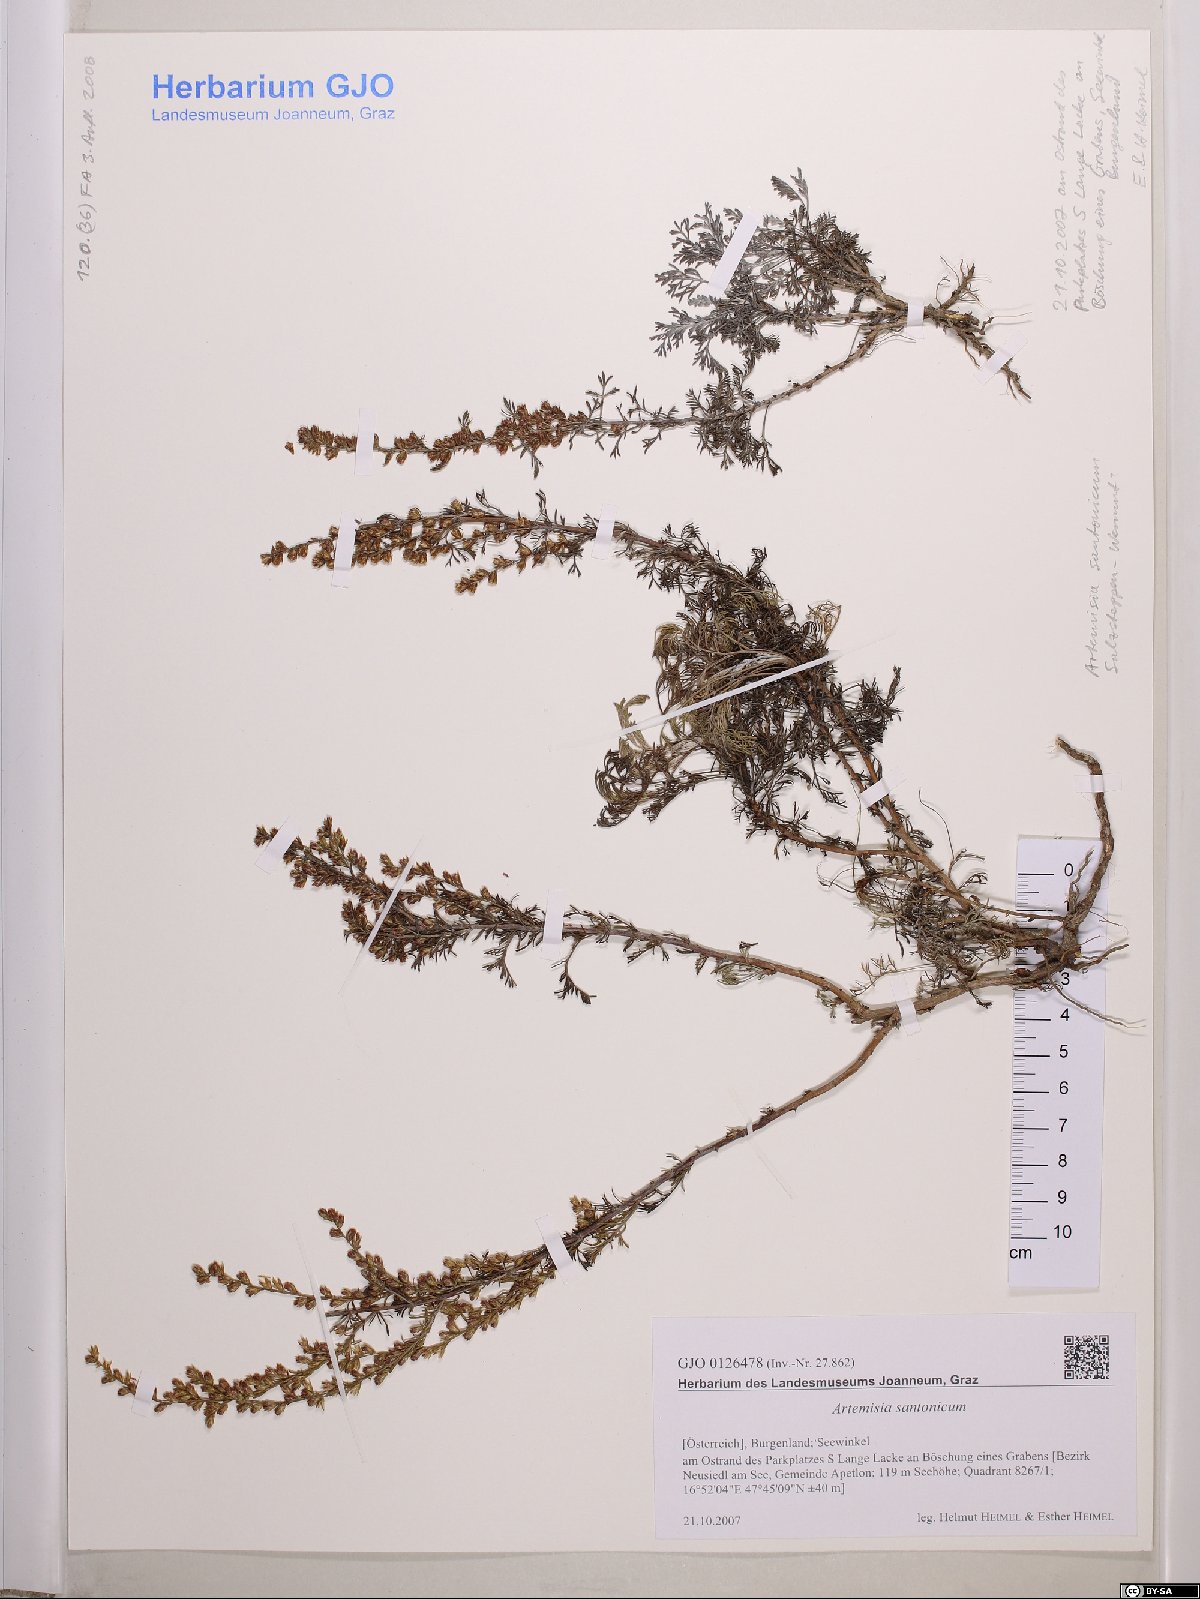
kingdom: Plantae
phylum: Tracheophyta
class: Magnoliopsida
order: Asterales
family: Asteraceae
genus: Artemisia
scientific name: Artemisia santonicum
